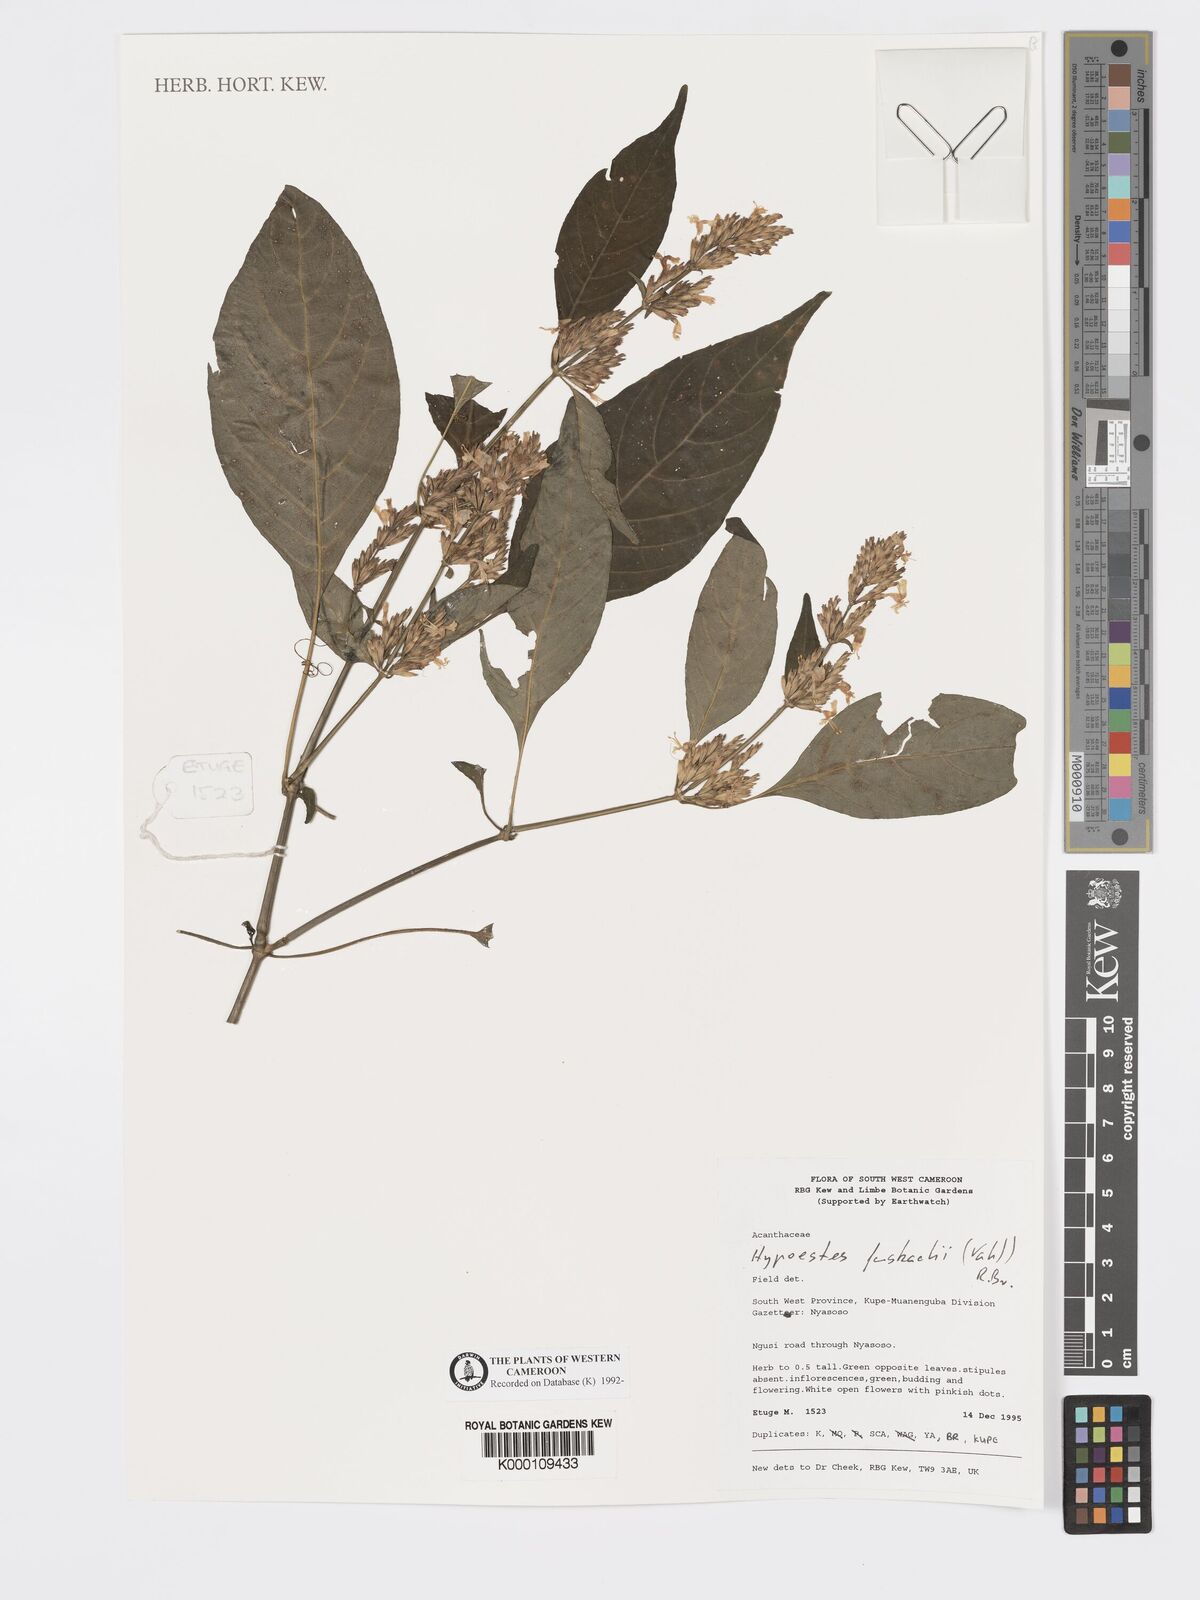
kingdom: Plantae
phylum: Tracheophyta
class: Magnoliopsida
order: Lamiales
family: Acanthaceae
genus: Hypoestes
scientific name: Hypoestes forskaolii
